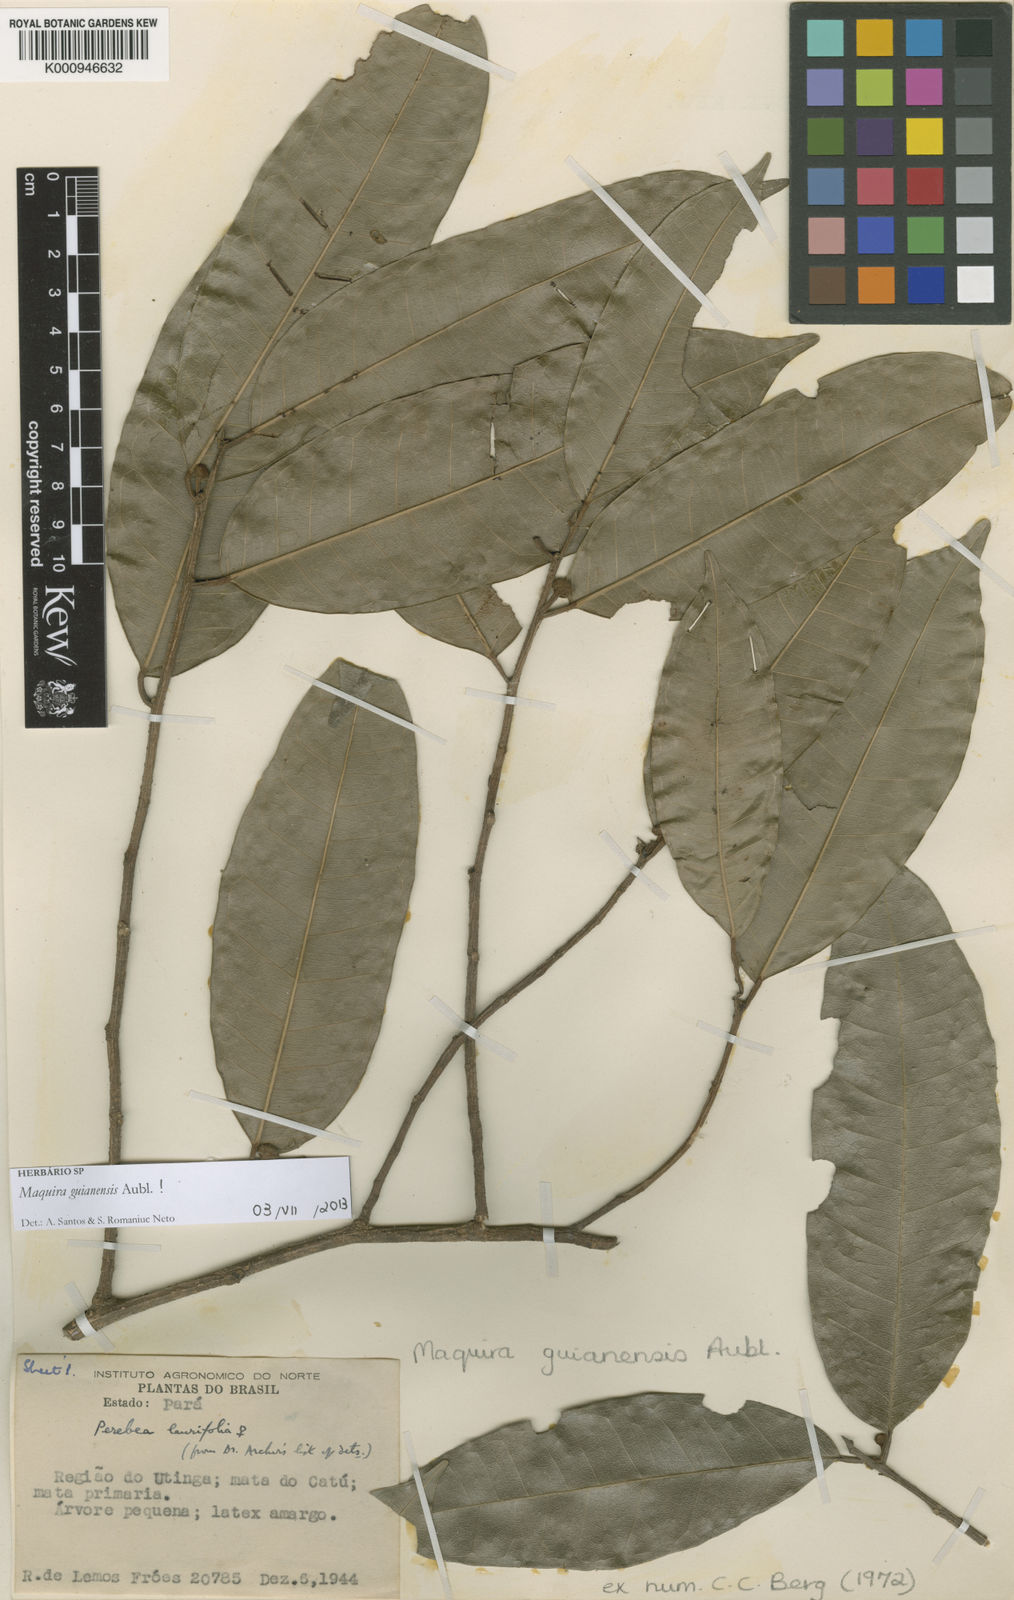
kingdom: Plantae
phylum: Tracheophyta
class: Magnoliopsida
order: Rosales
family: Moraceae
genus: Maquira
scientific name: Maquira guianensis
